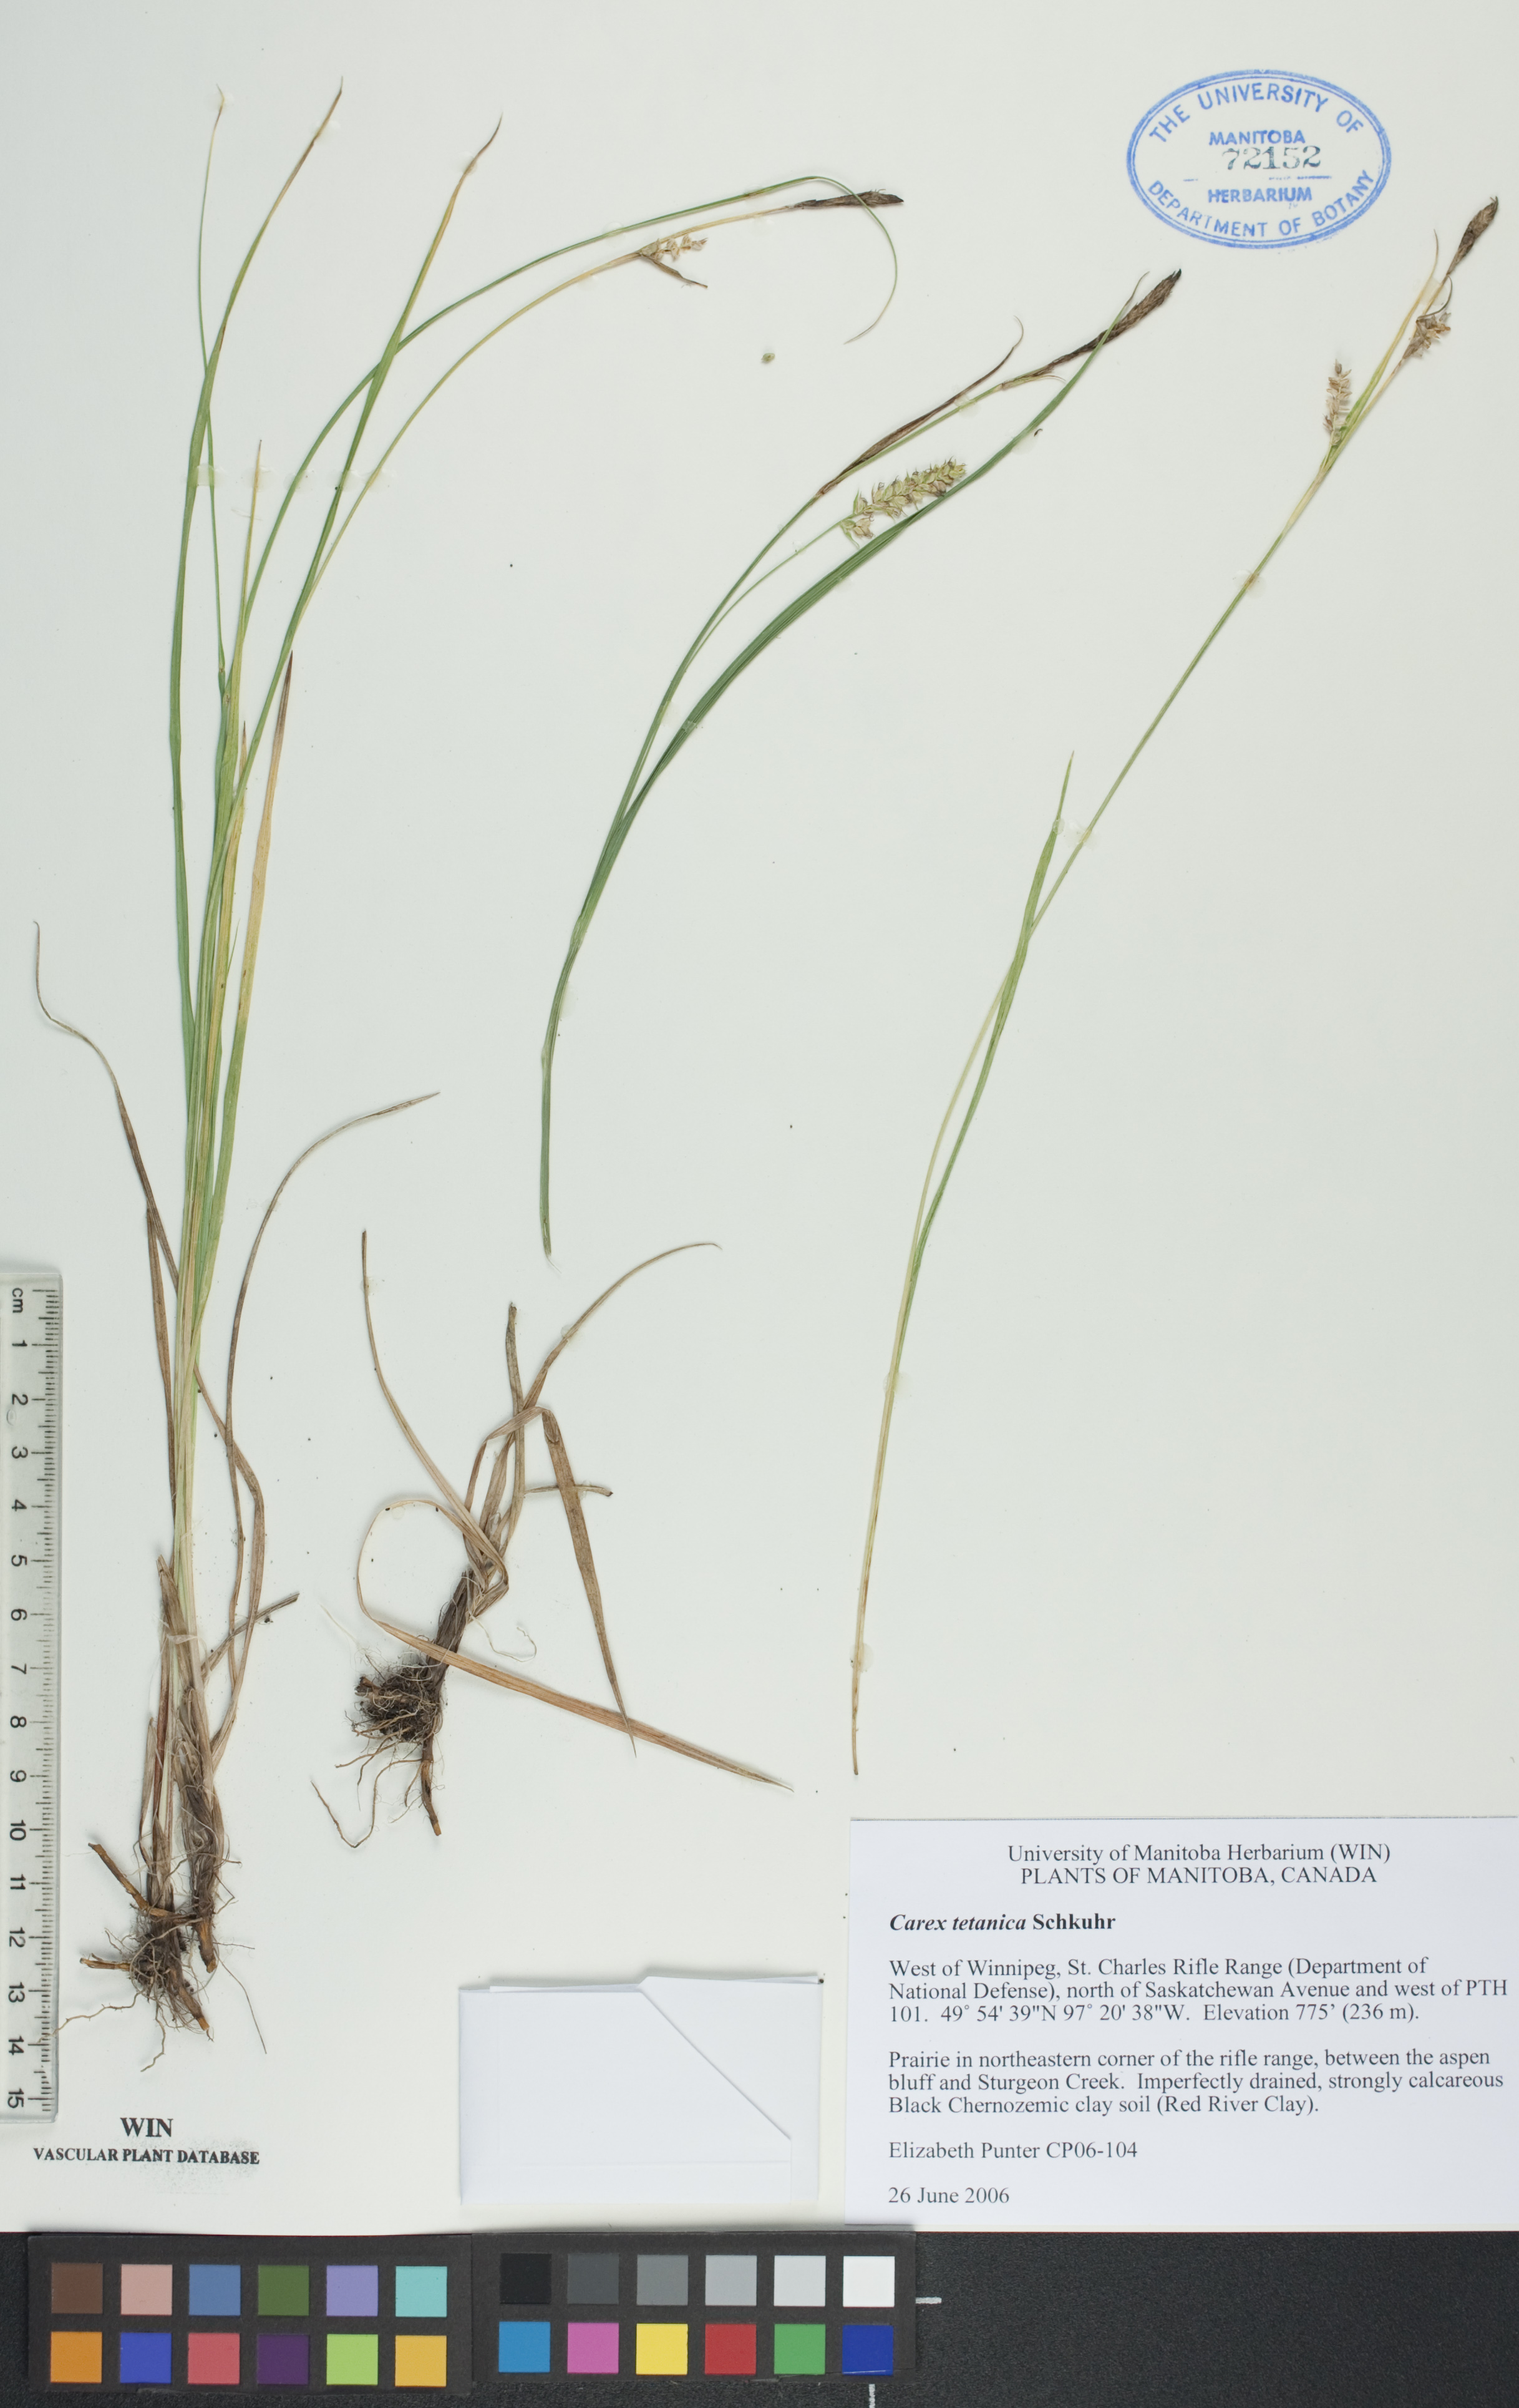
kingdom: Plantae
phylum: Tracheophyta
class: Liliopsida
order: Poales
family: Cyperaceae
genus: Carex
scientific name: Carex tetanica
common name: Rigid sedge
